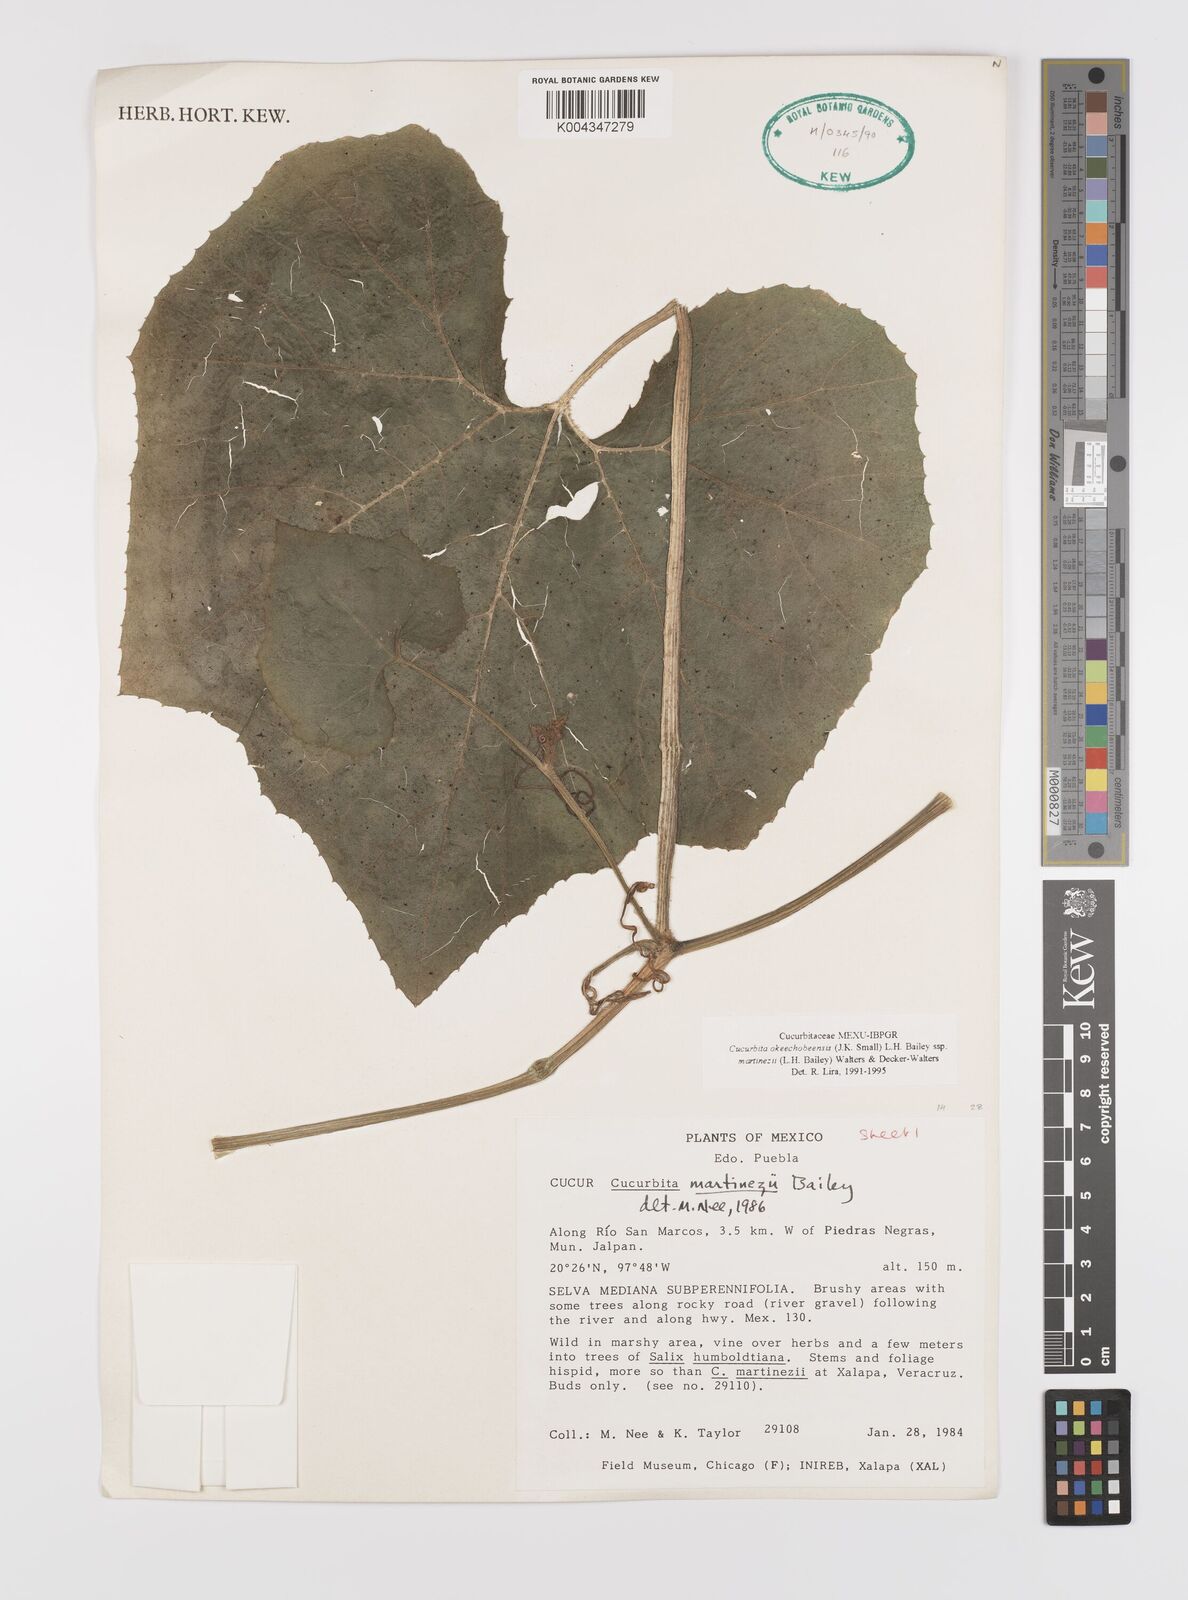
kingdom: Plantae
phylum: Tracheophyta
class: Magnoliopsida
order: Cucurbitales
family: Cucurbitaceae
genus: Cucurbita
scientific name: Cucurbita okeechobeensis
